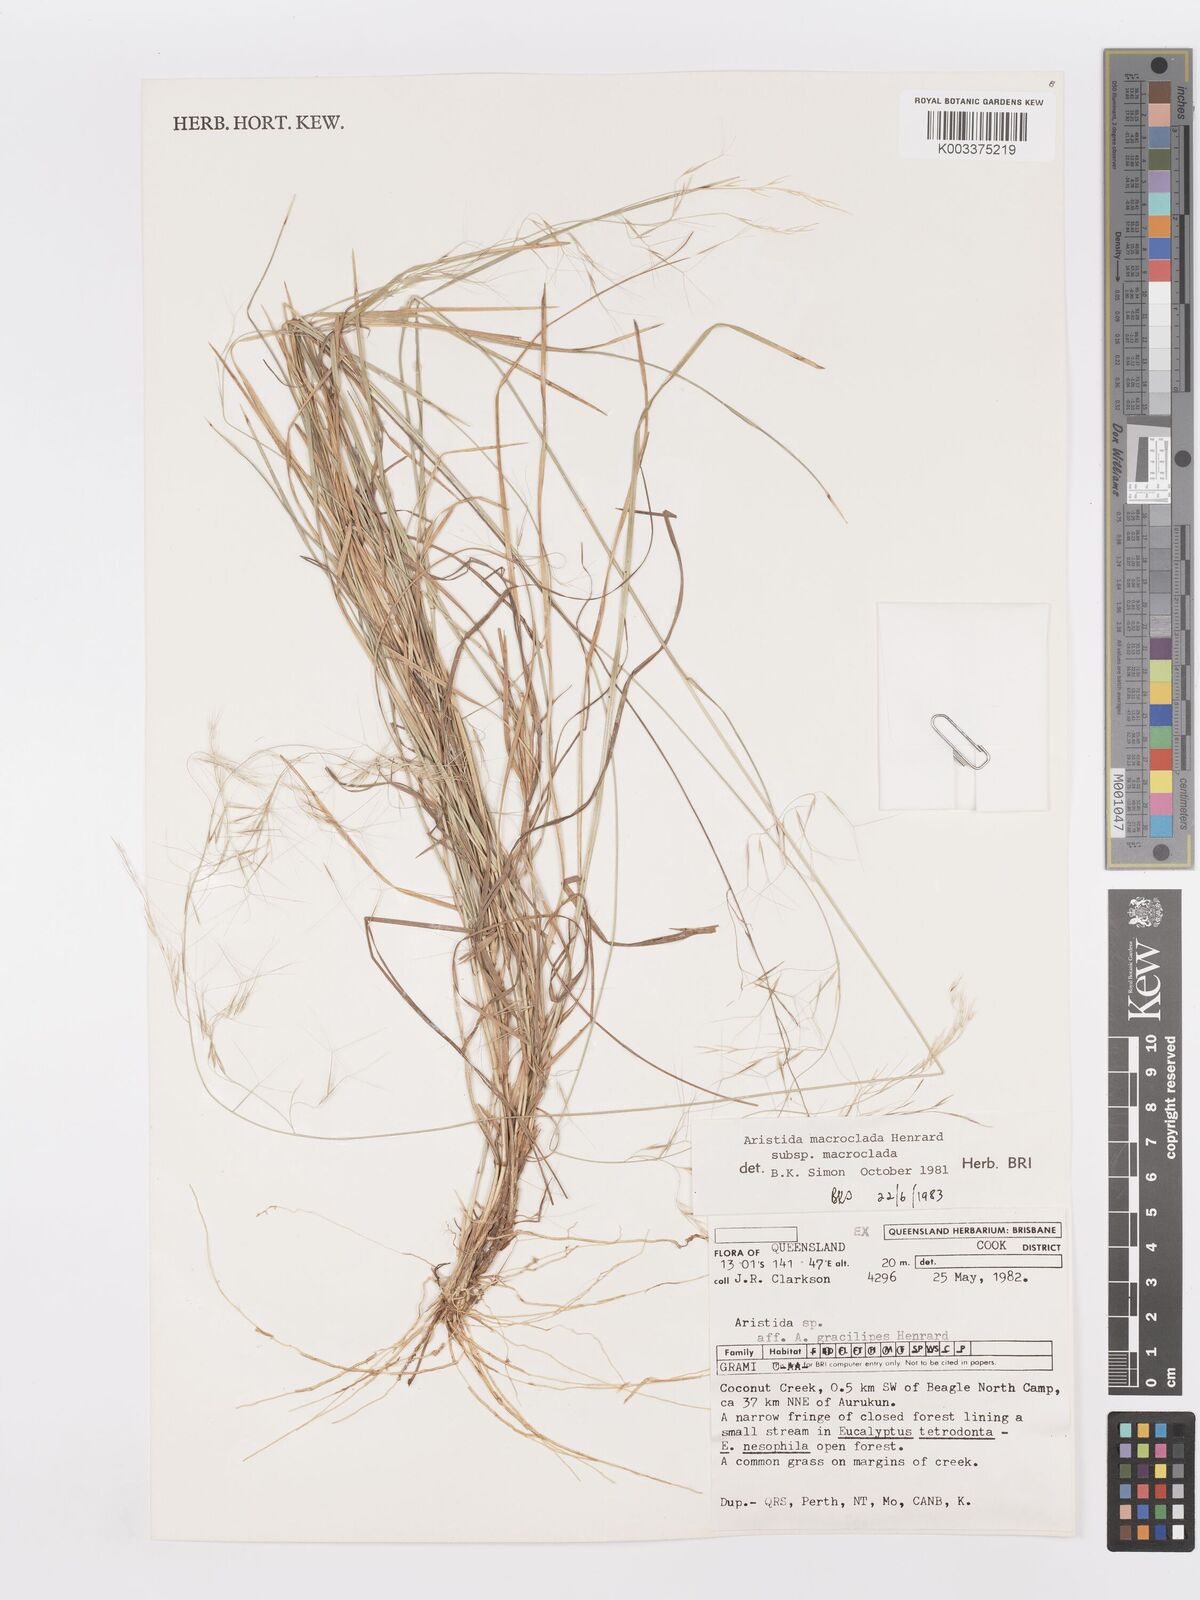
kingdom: Plantae
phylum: Tracheophyta
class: Liliopsida
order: Poales
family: Poaceae
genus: Aristida
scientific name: Aristida macroclada
